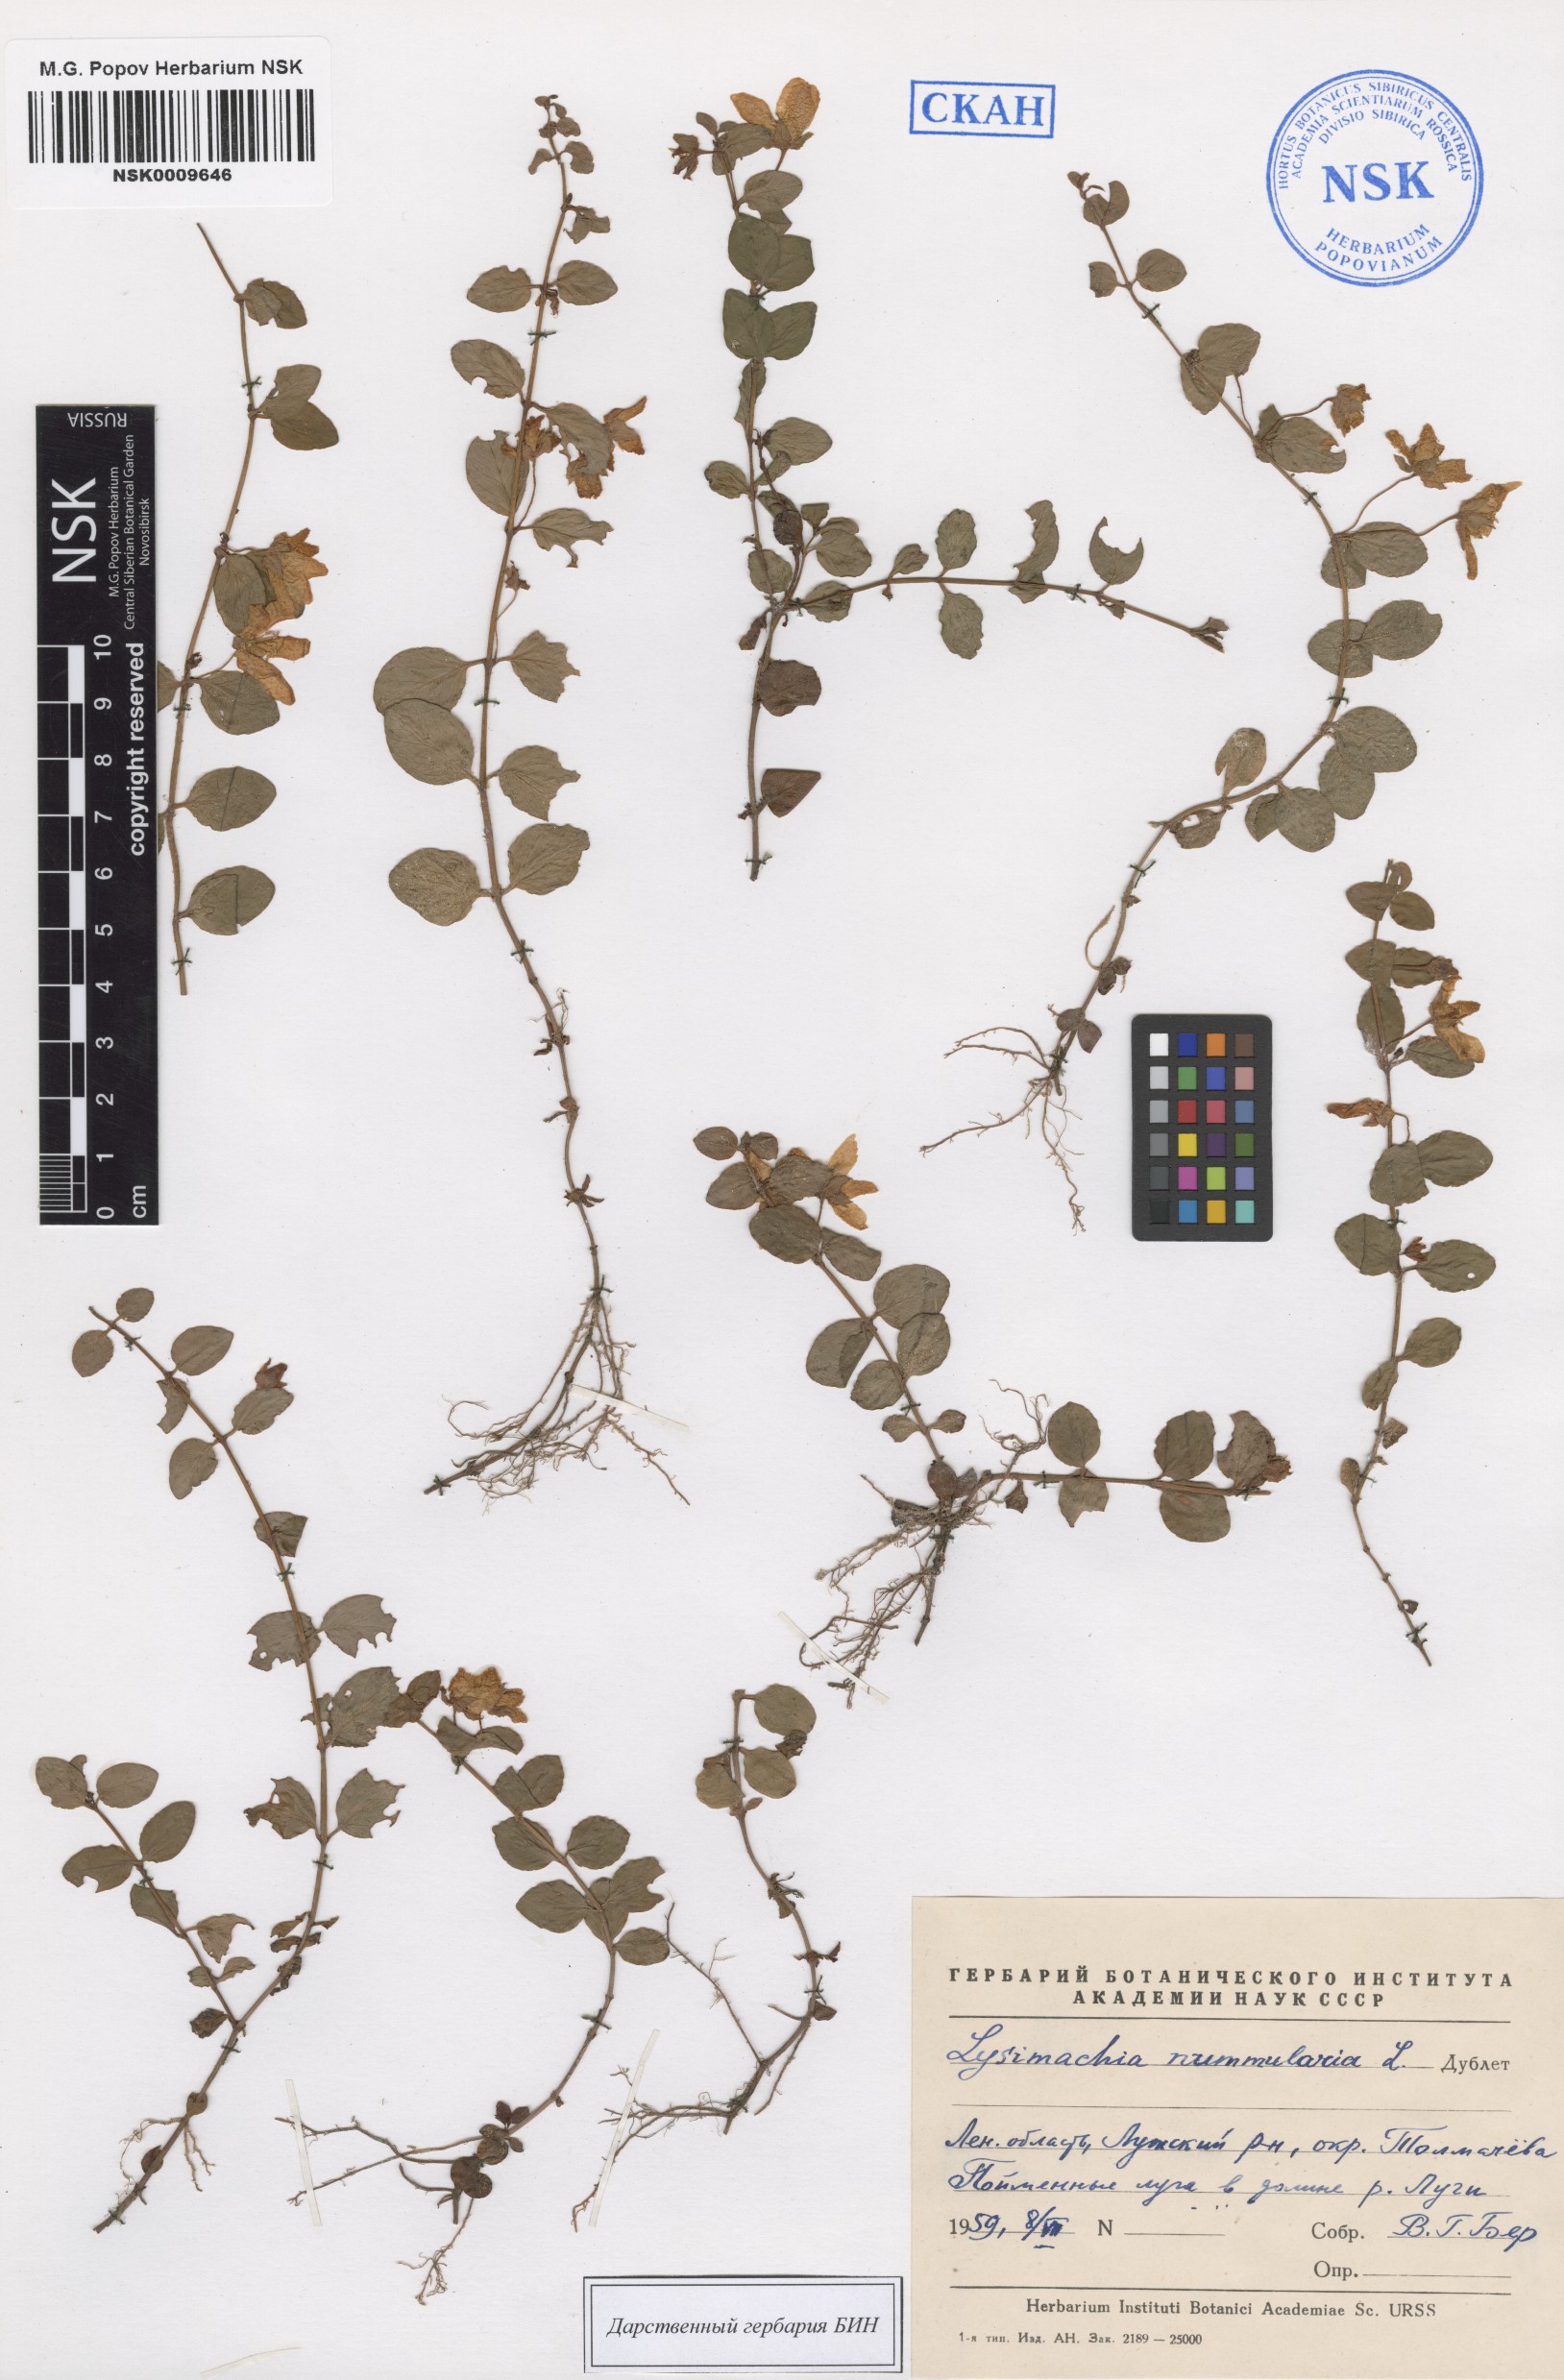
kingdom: Plantae
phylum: Tracheophyta
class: Magnoliopsida
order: Ericales
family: Primulaceae
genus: Lysimachia
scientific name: Lysimachia nummularia
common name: Moneywort
